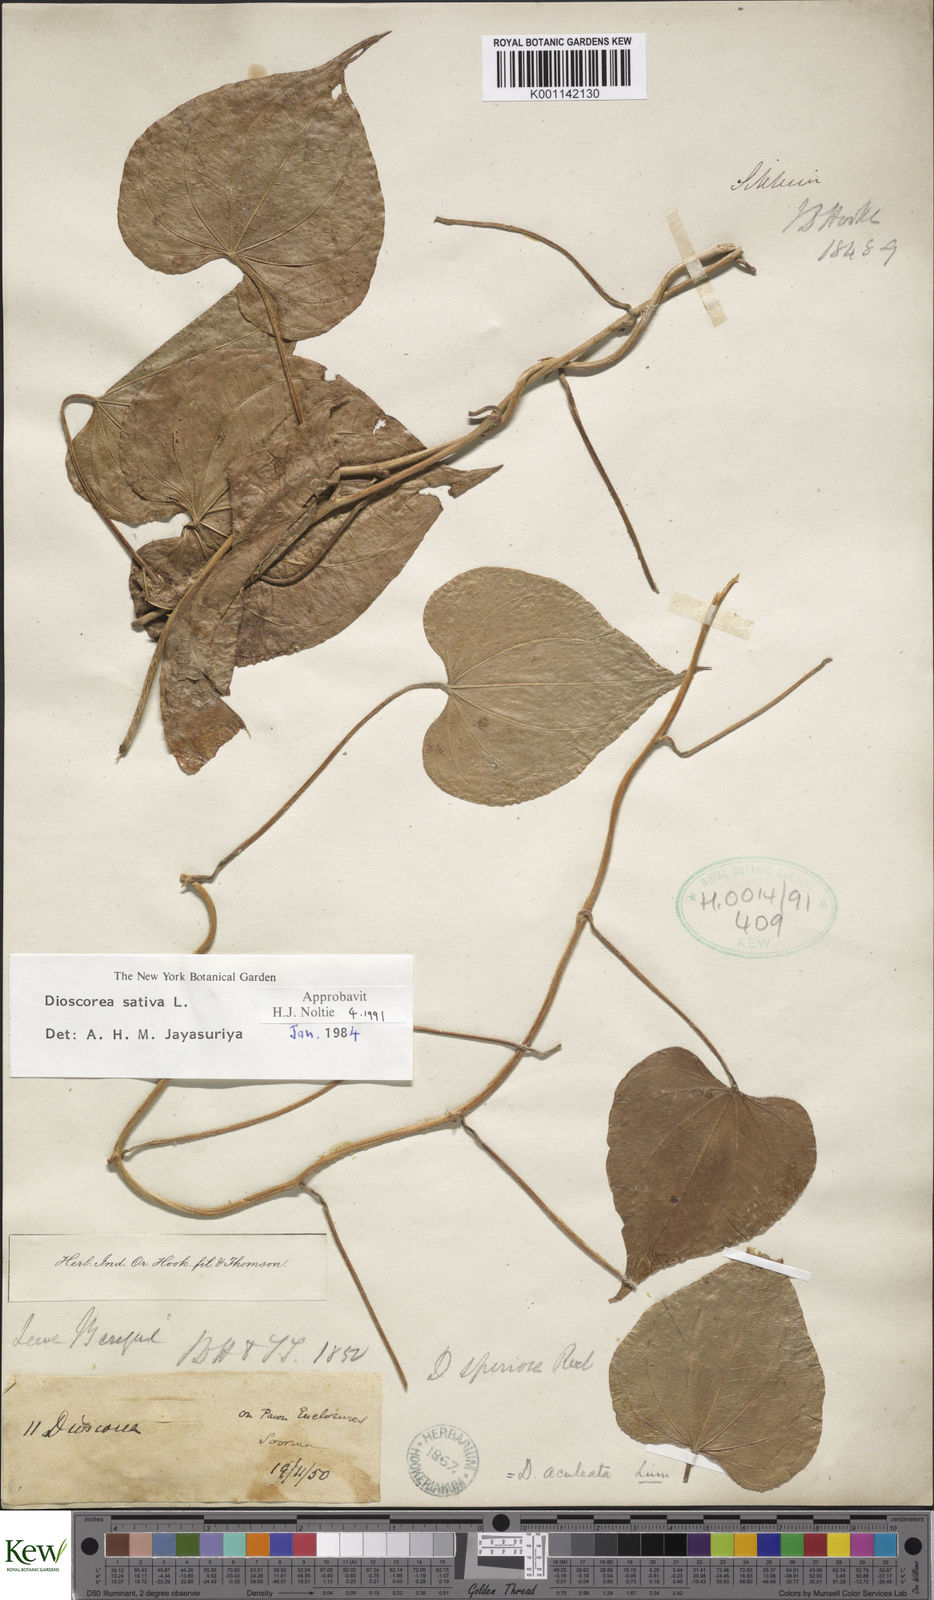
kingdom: Plantae
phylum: Tracheophyta
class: Liliopsida
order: Dioscoreales
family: Dioscoreaceae
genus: Dioscorea
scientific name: Dioscorea esculenta
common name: Chinese yam
